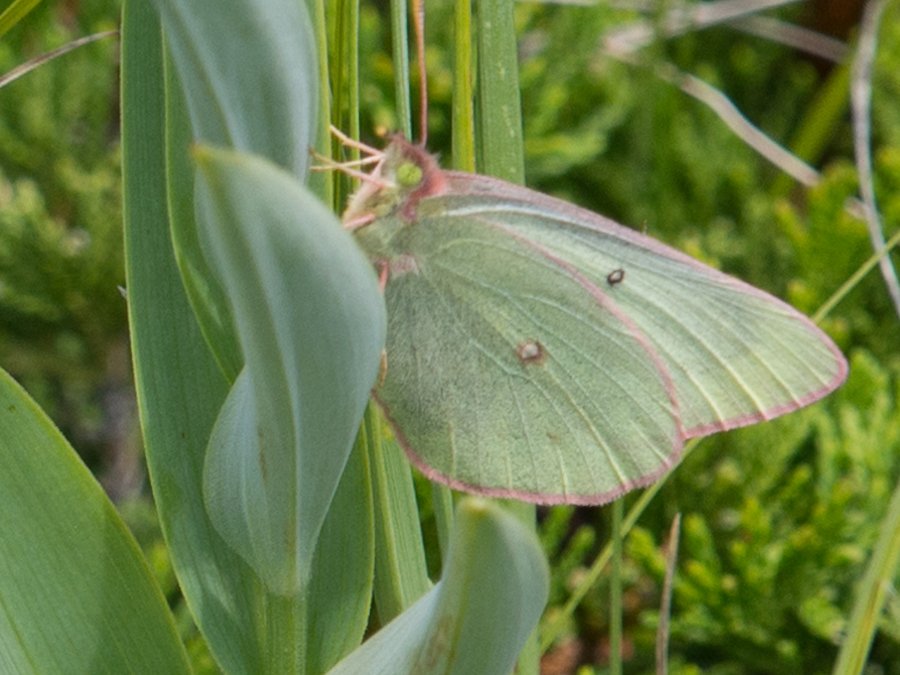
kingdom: Animalia
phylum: Arthropoda
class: Insecta
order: Lepidoptera
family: Pieridae
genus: Colias
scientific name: Colias philodice
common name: Clouded Sulphur
